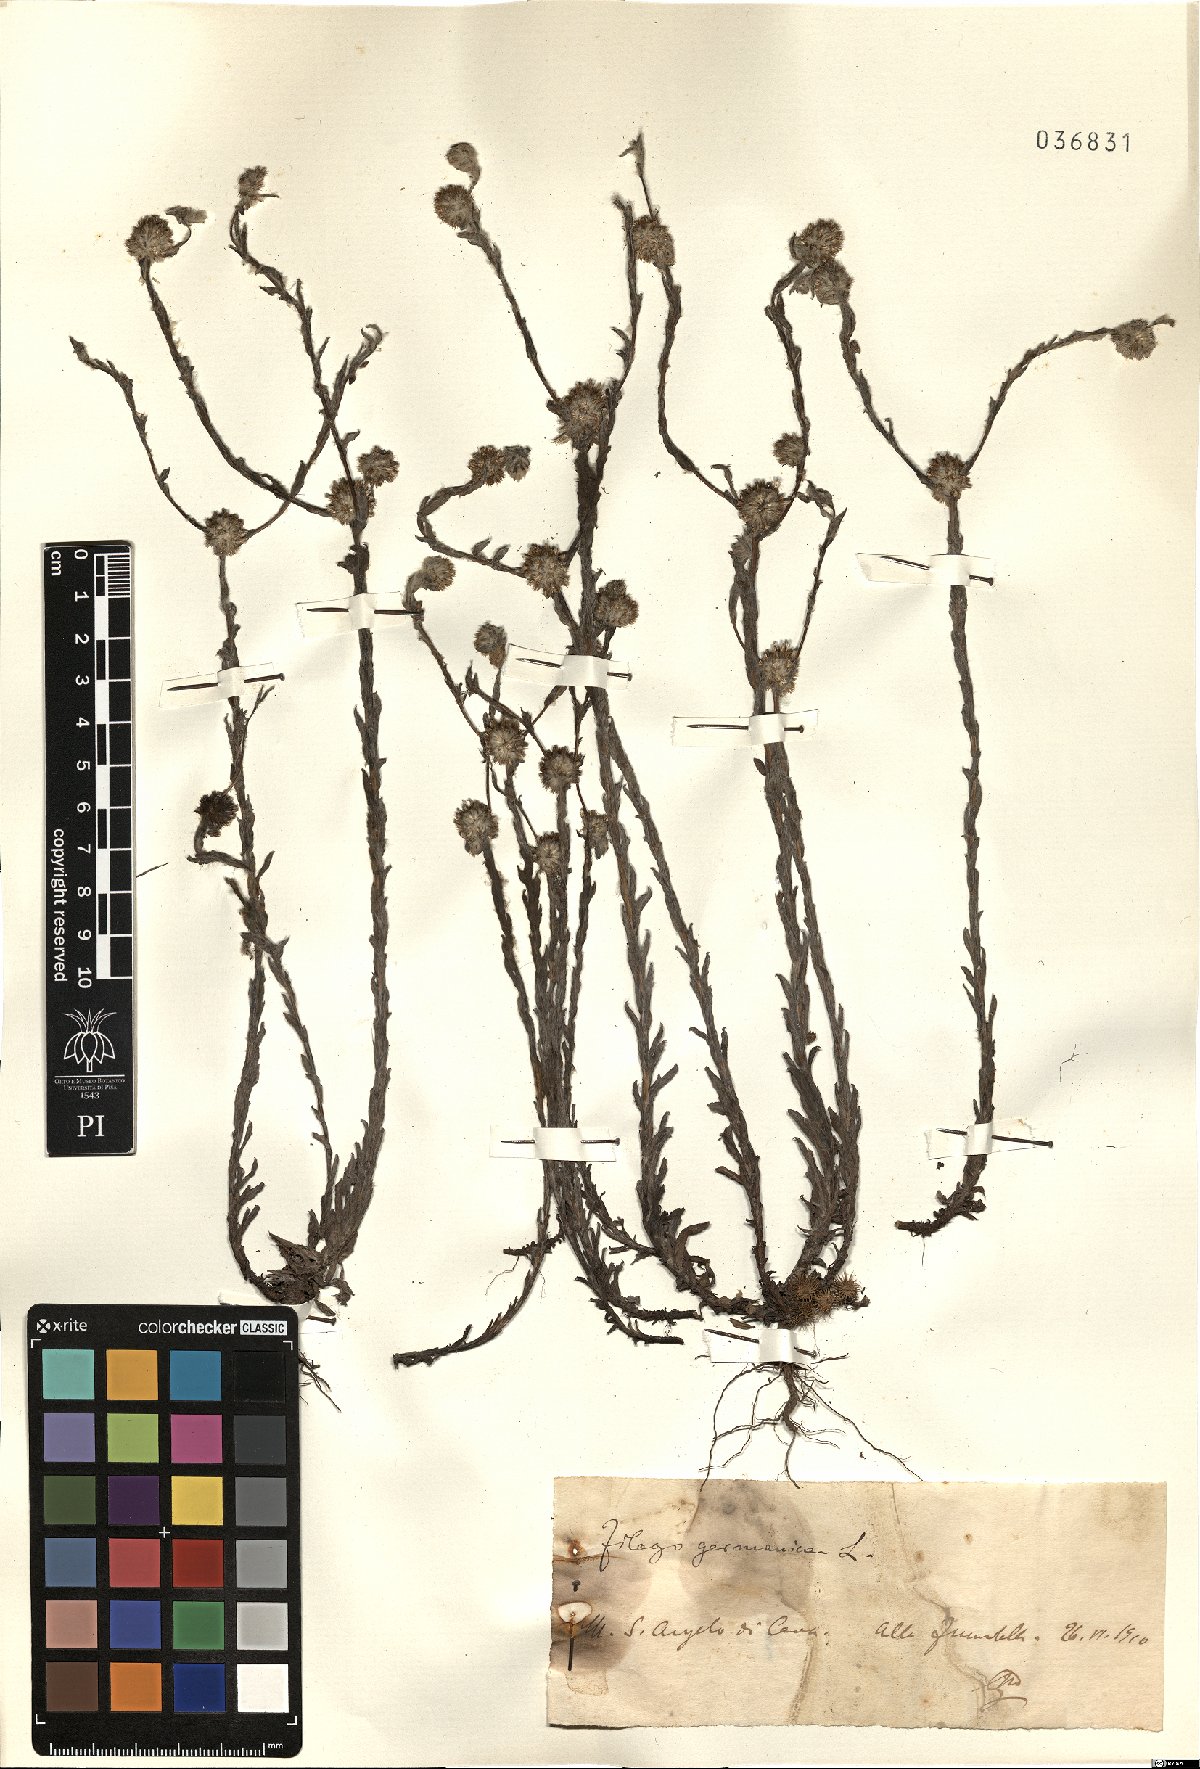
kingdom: Plantae
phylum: Tracheophyta
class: Magnoliopsida
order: Asterales
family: Asteraceae
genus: Filago
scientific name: Filago germanica
